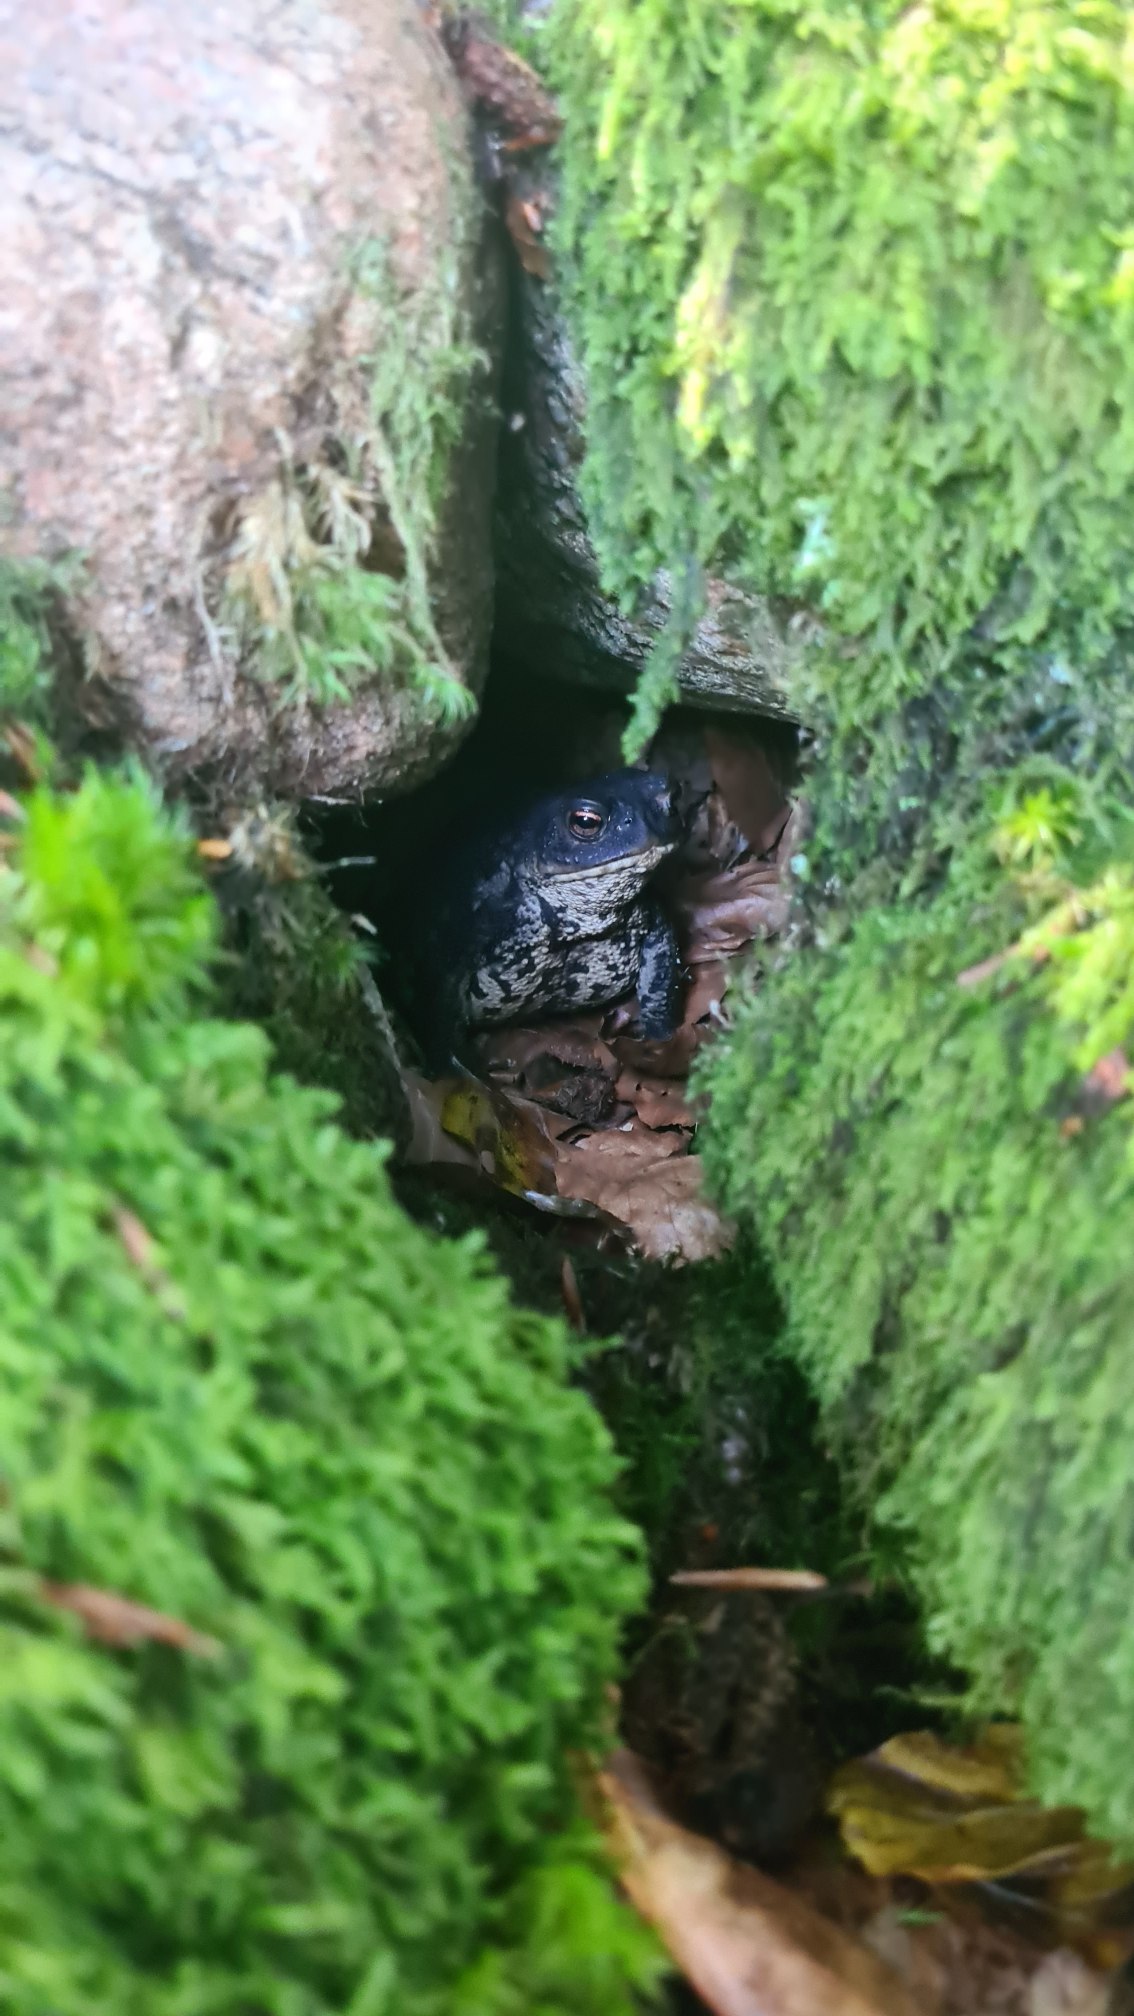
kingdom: Animalia
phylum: Chordata
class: Amphibia
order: Anura
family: Bufonidae
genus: Bufo
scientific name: Bufo bufo
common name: Skrubtudse
